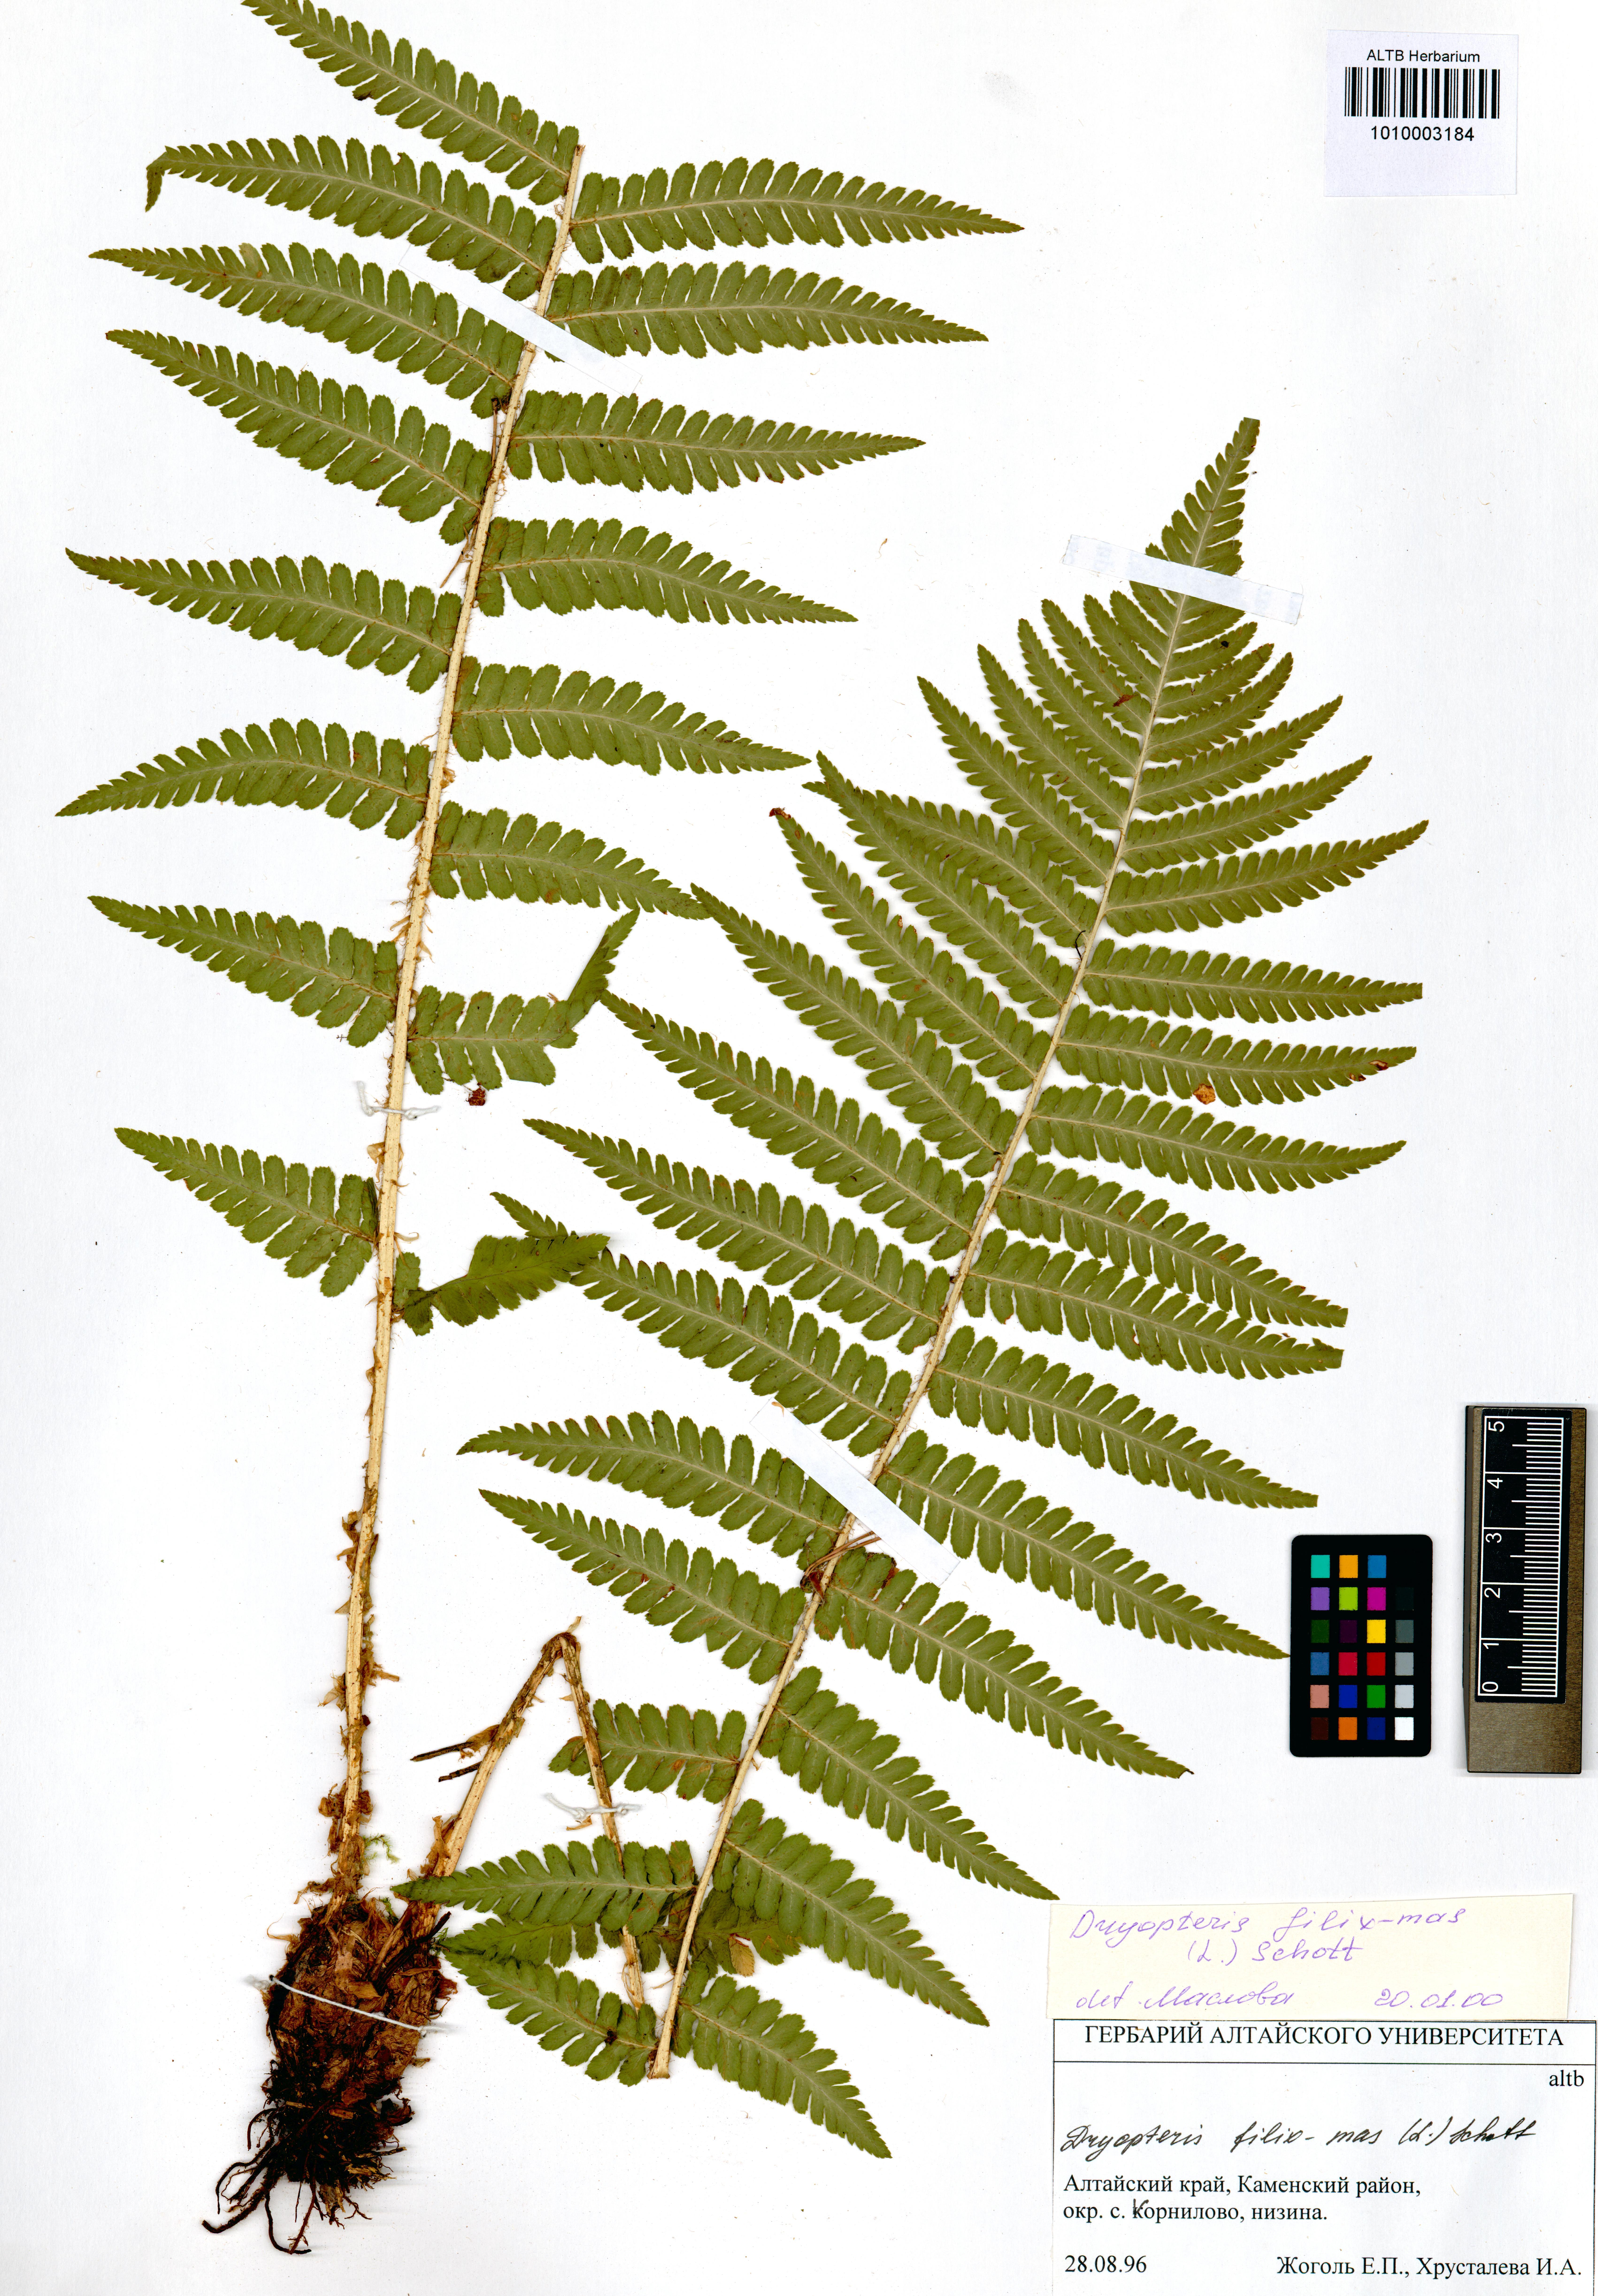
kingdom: Plantae
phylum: Tracheophyta
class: Polypodiopsida
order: Polypodiales
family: Dryopteridaceae
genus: Dryopteris
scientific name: Dryopteris filix-mas
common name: Male fern
